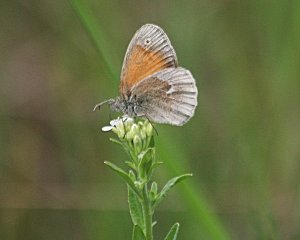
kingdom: Animalia
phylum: Arthropoda
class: Insecta
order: Lepidoptera
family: Nymphalidae
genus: Coenonympha
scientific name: Coenonympha tullia
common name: Large Heath
